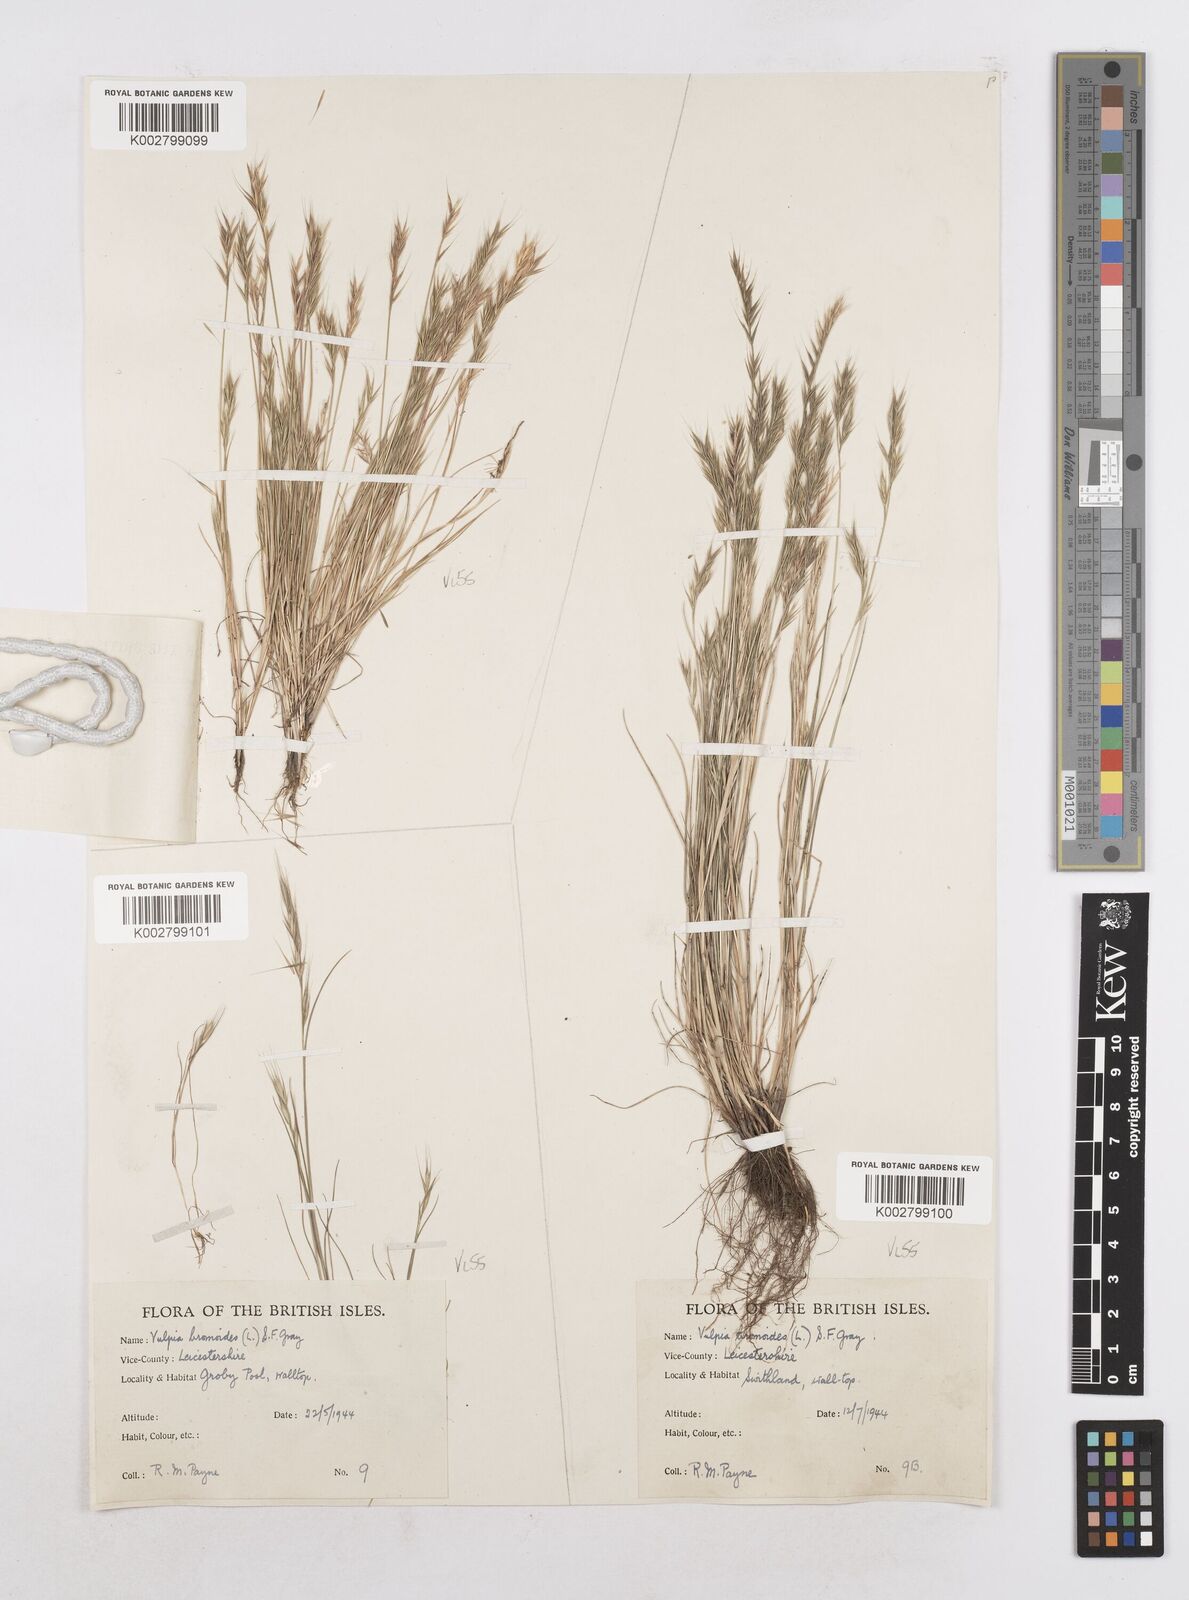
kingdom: Plantae
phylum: Tracheophyta
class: Liliopsida
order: Poales
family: Poaceae
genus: Festuca
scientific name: Festuca bromoides
